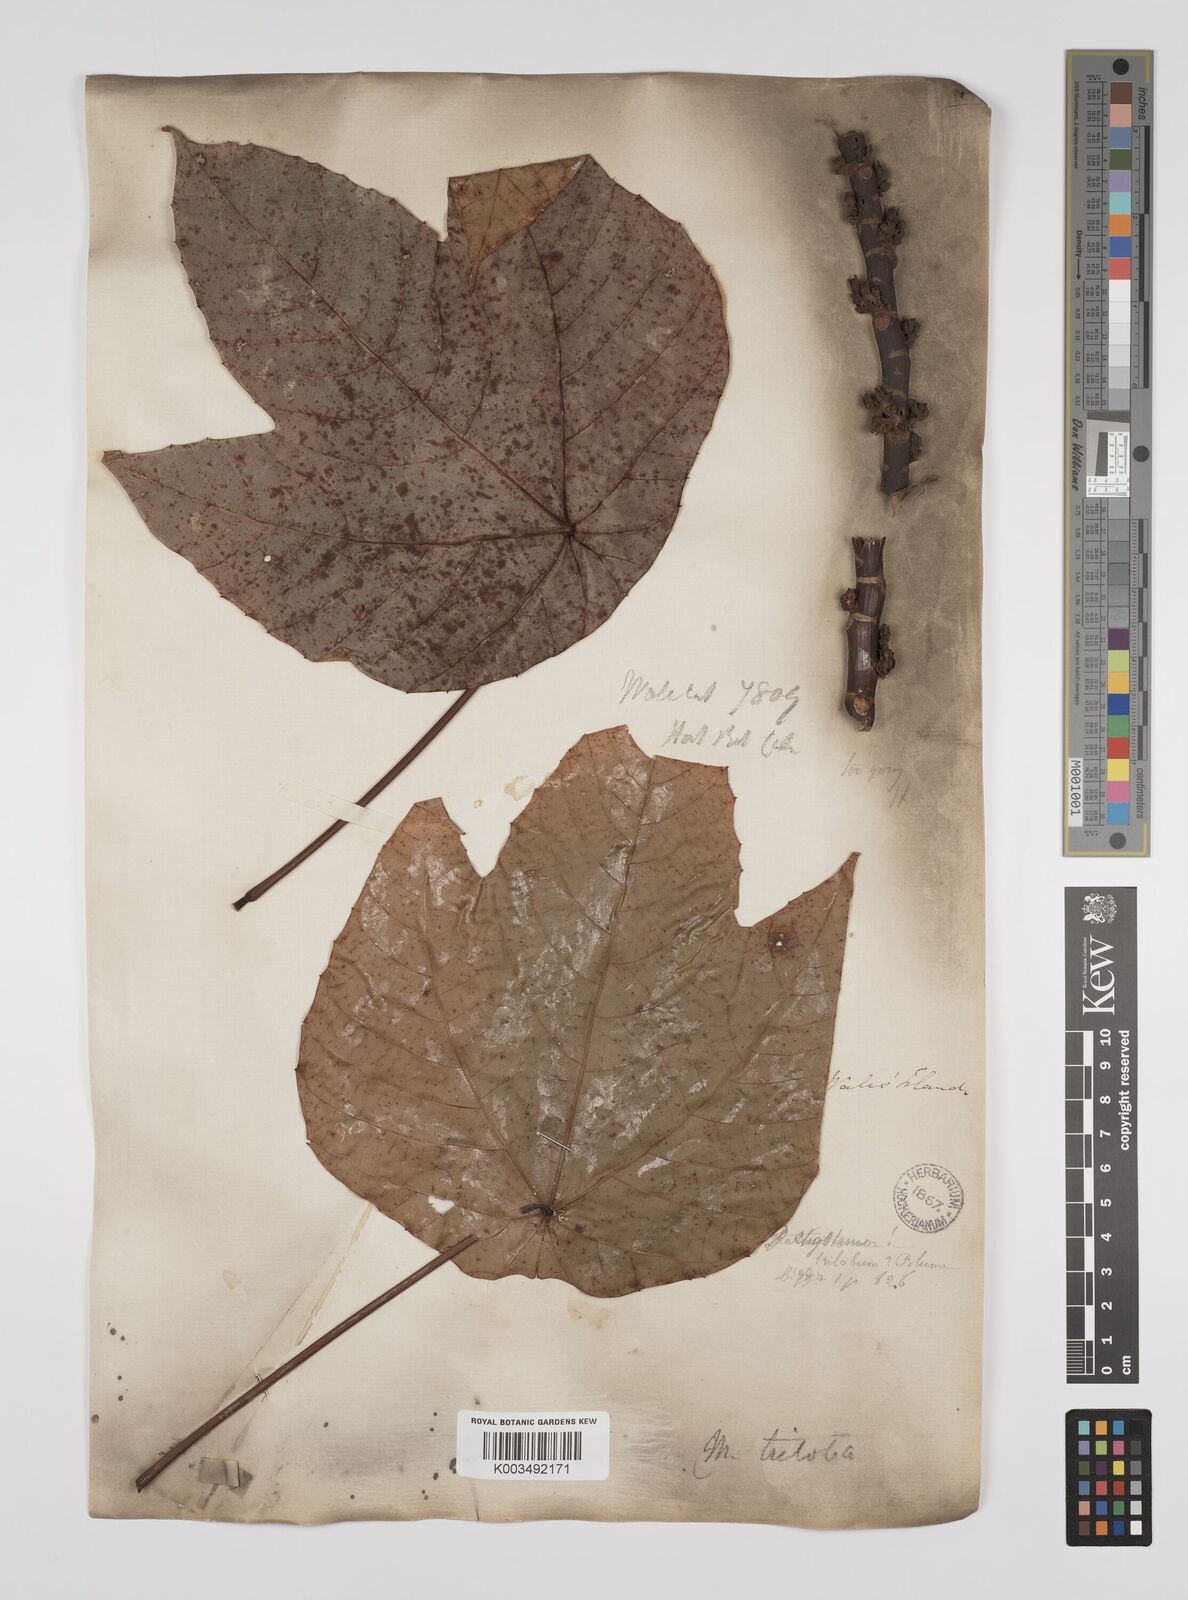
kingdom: Plantae
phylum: Tracheophyta
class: Magnoliopsida
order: Malpighiales
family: Euphorbiaceae
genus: Macaranga
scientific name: Macaranga triloba
